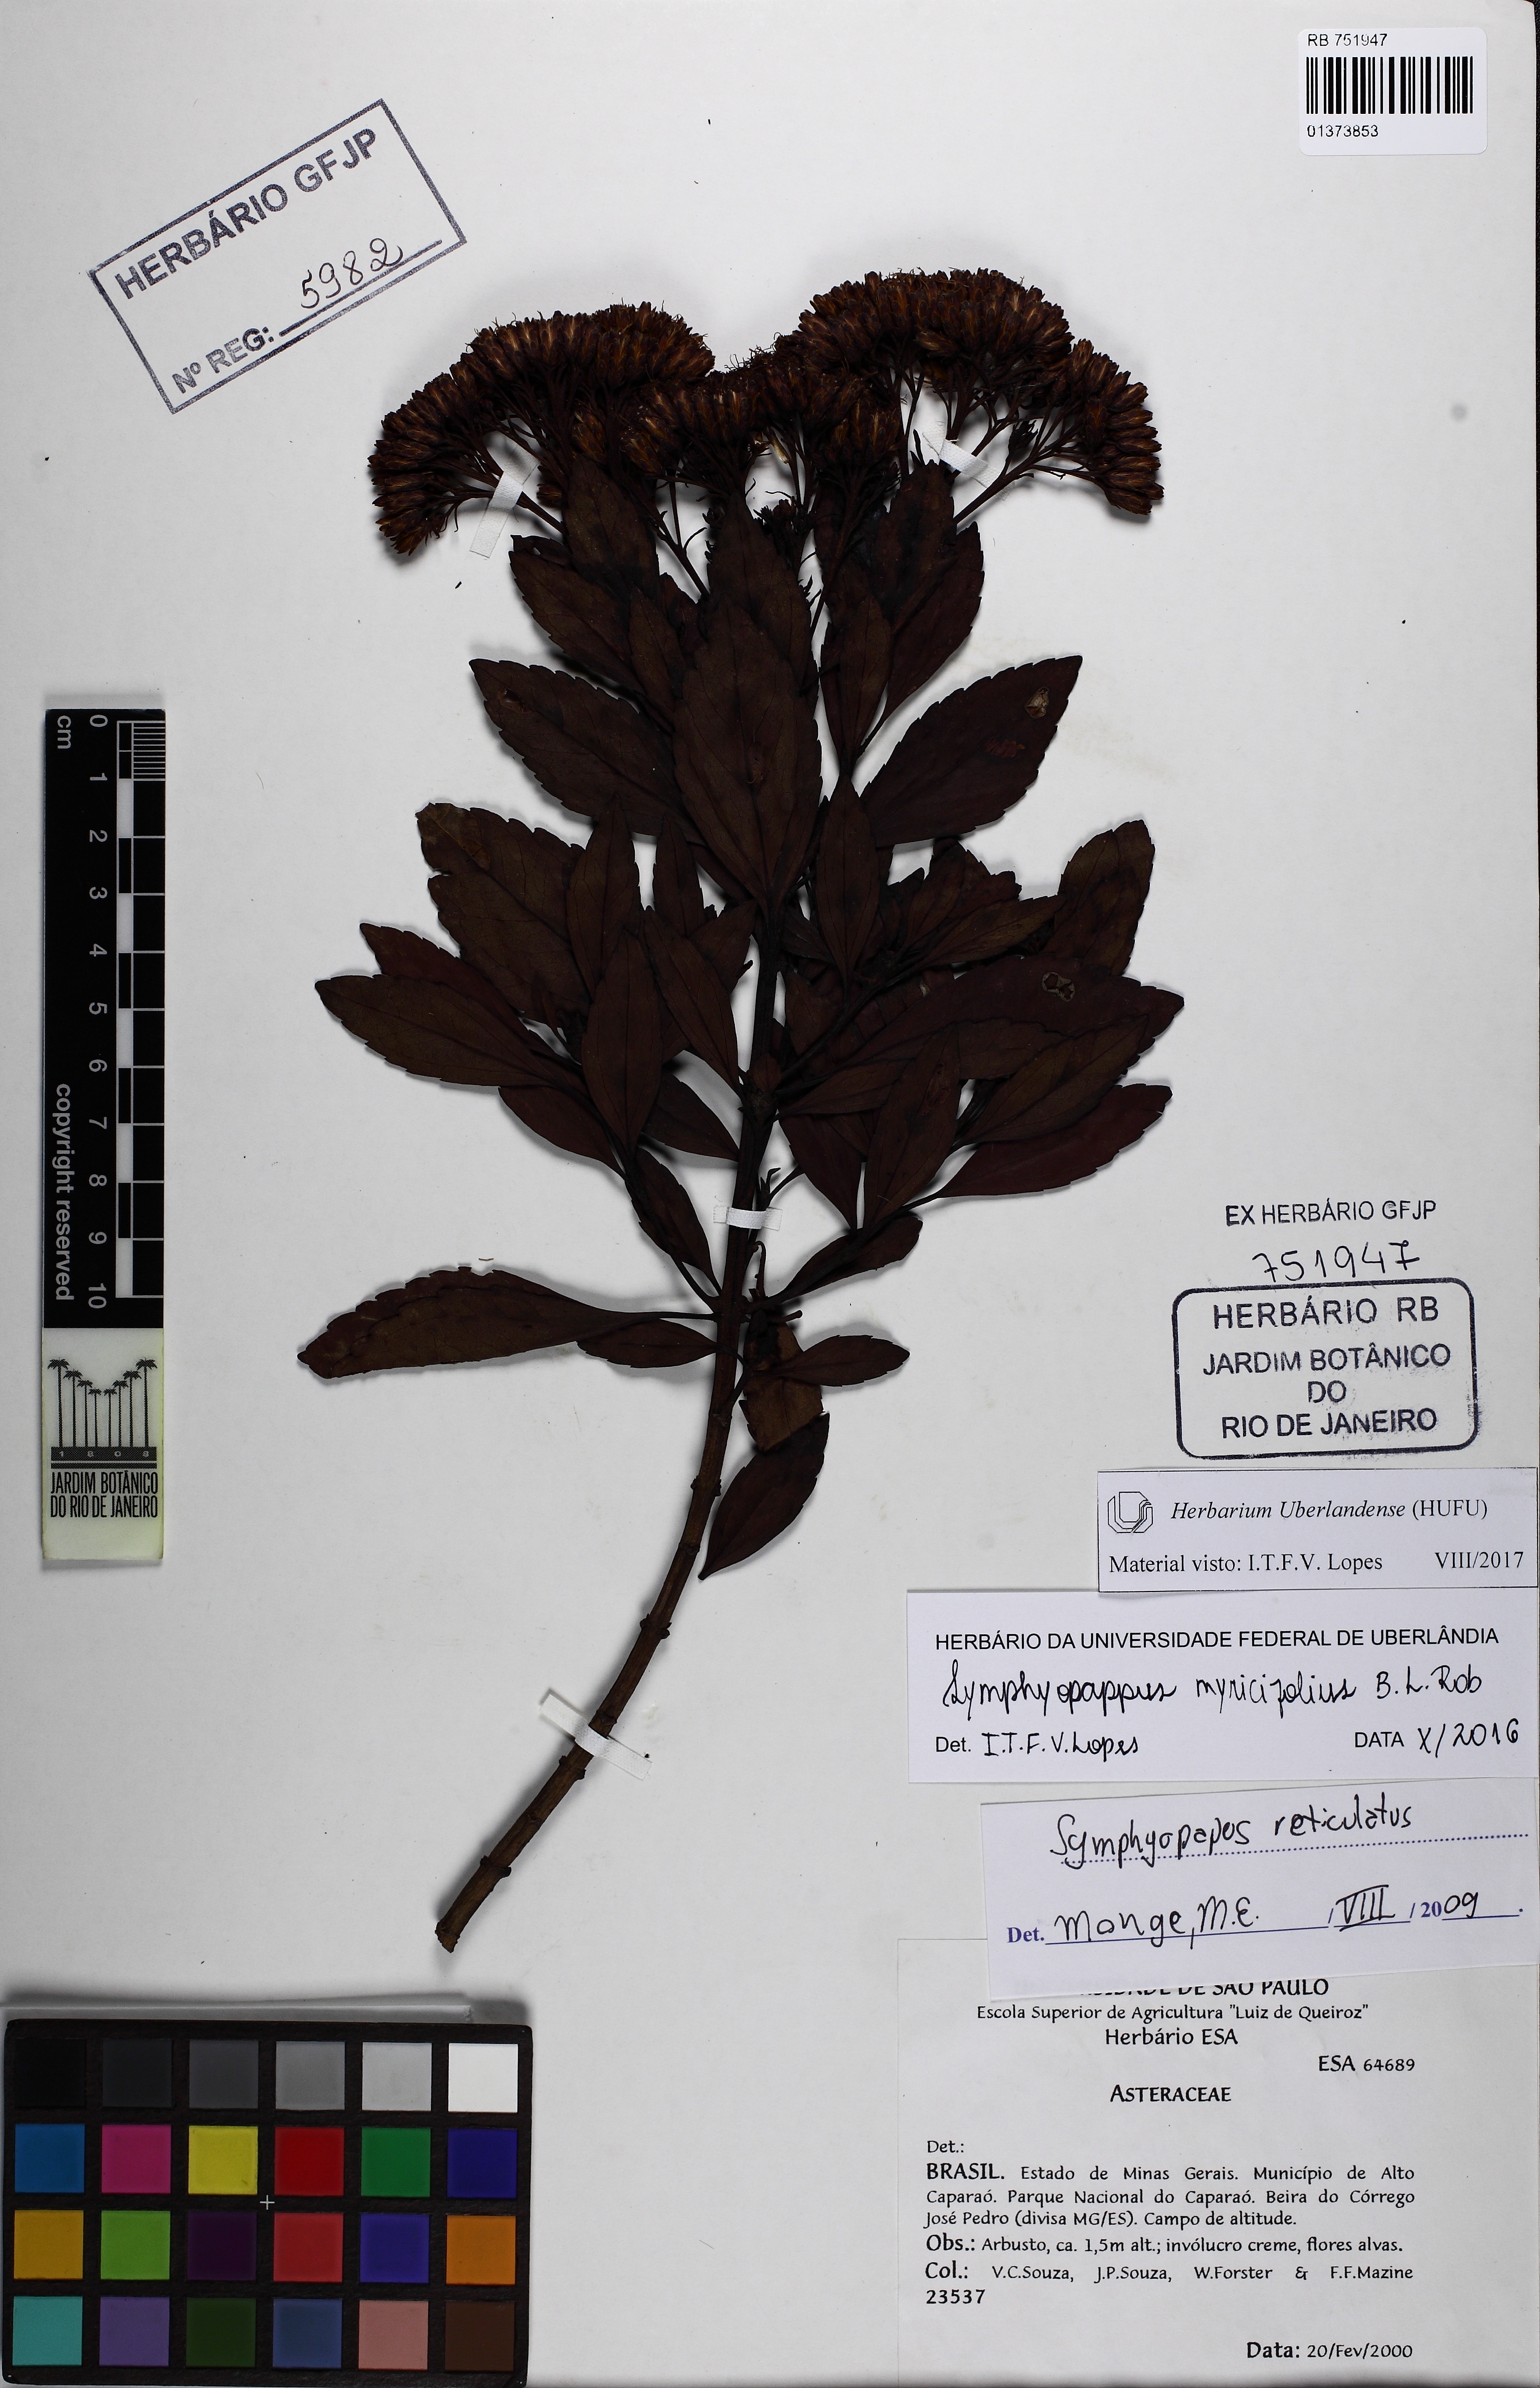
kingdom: Plantae
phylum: Tracheophyta
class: Magnoliopsida
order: Asterales
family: Asteraceae
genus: Symphyopappus
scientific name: Symphyopappus myricifolius
